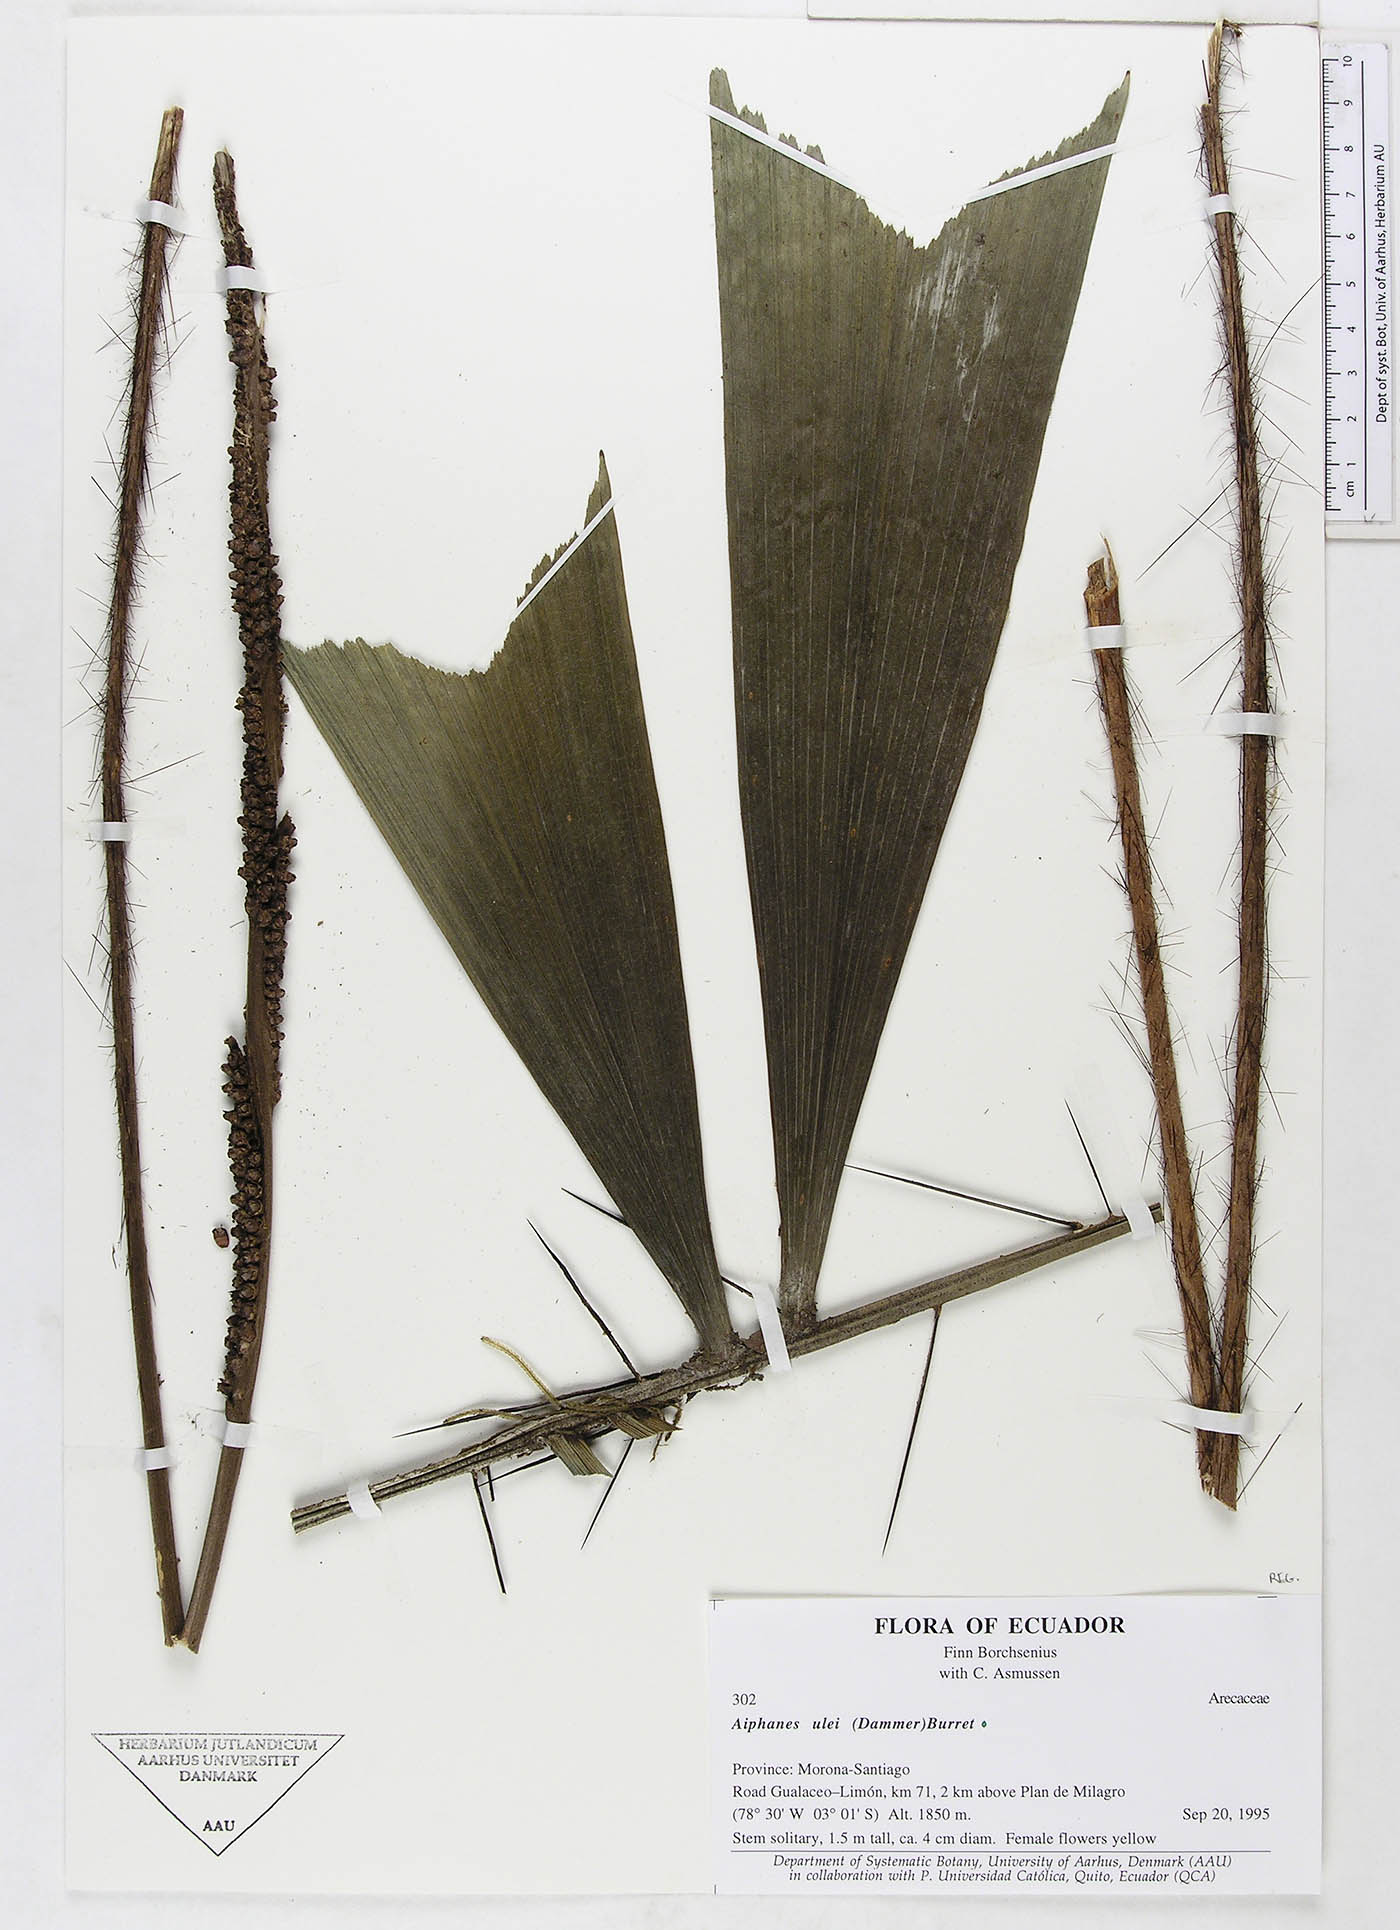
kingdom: Plantae
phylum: Tracheophyta
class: Liliopsida
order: Arecales
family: Arecaceae
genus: Aiphanes
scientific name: Aiphanes ulei
